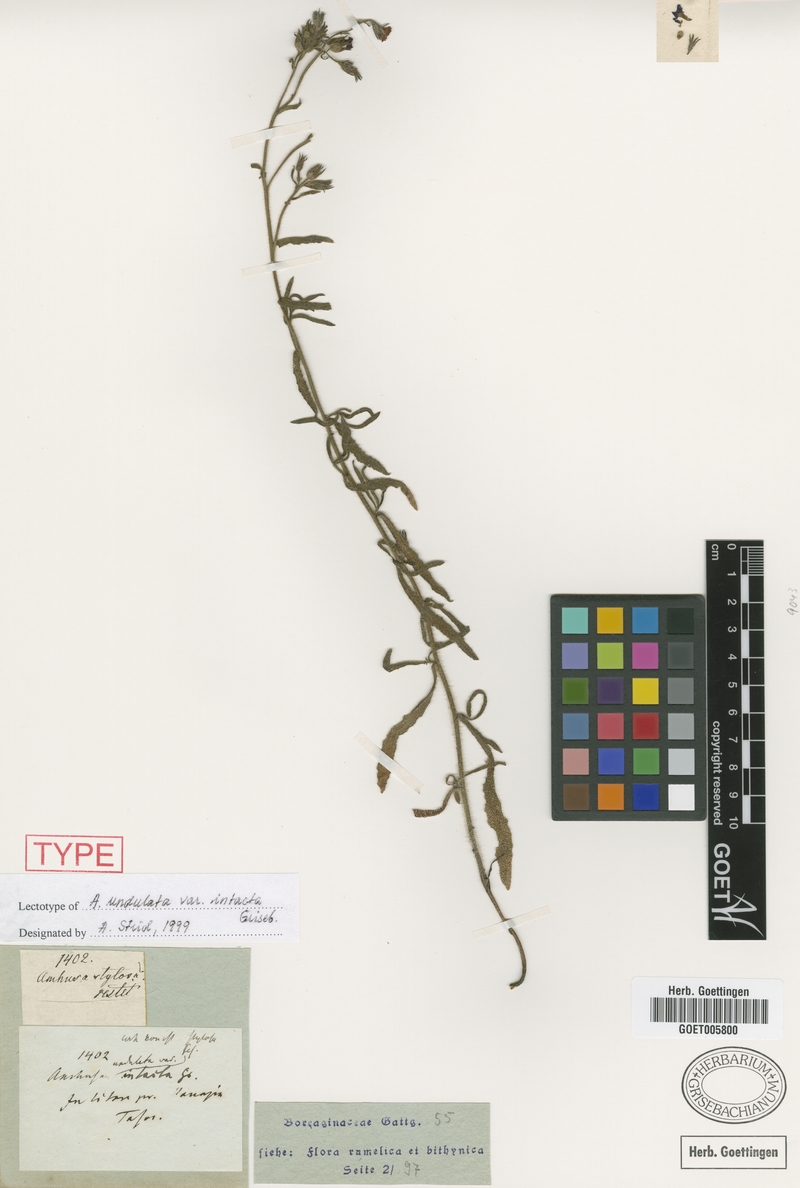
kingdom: Plantae
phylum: Tracheophyta
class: Magnoliopsida
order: Boraginales
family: Boraginaceae
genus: Anchusa
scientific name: Anchusa officinalis
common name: Alkanet
